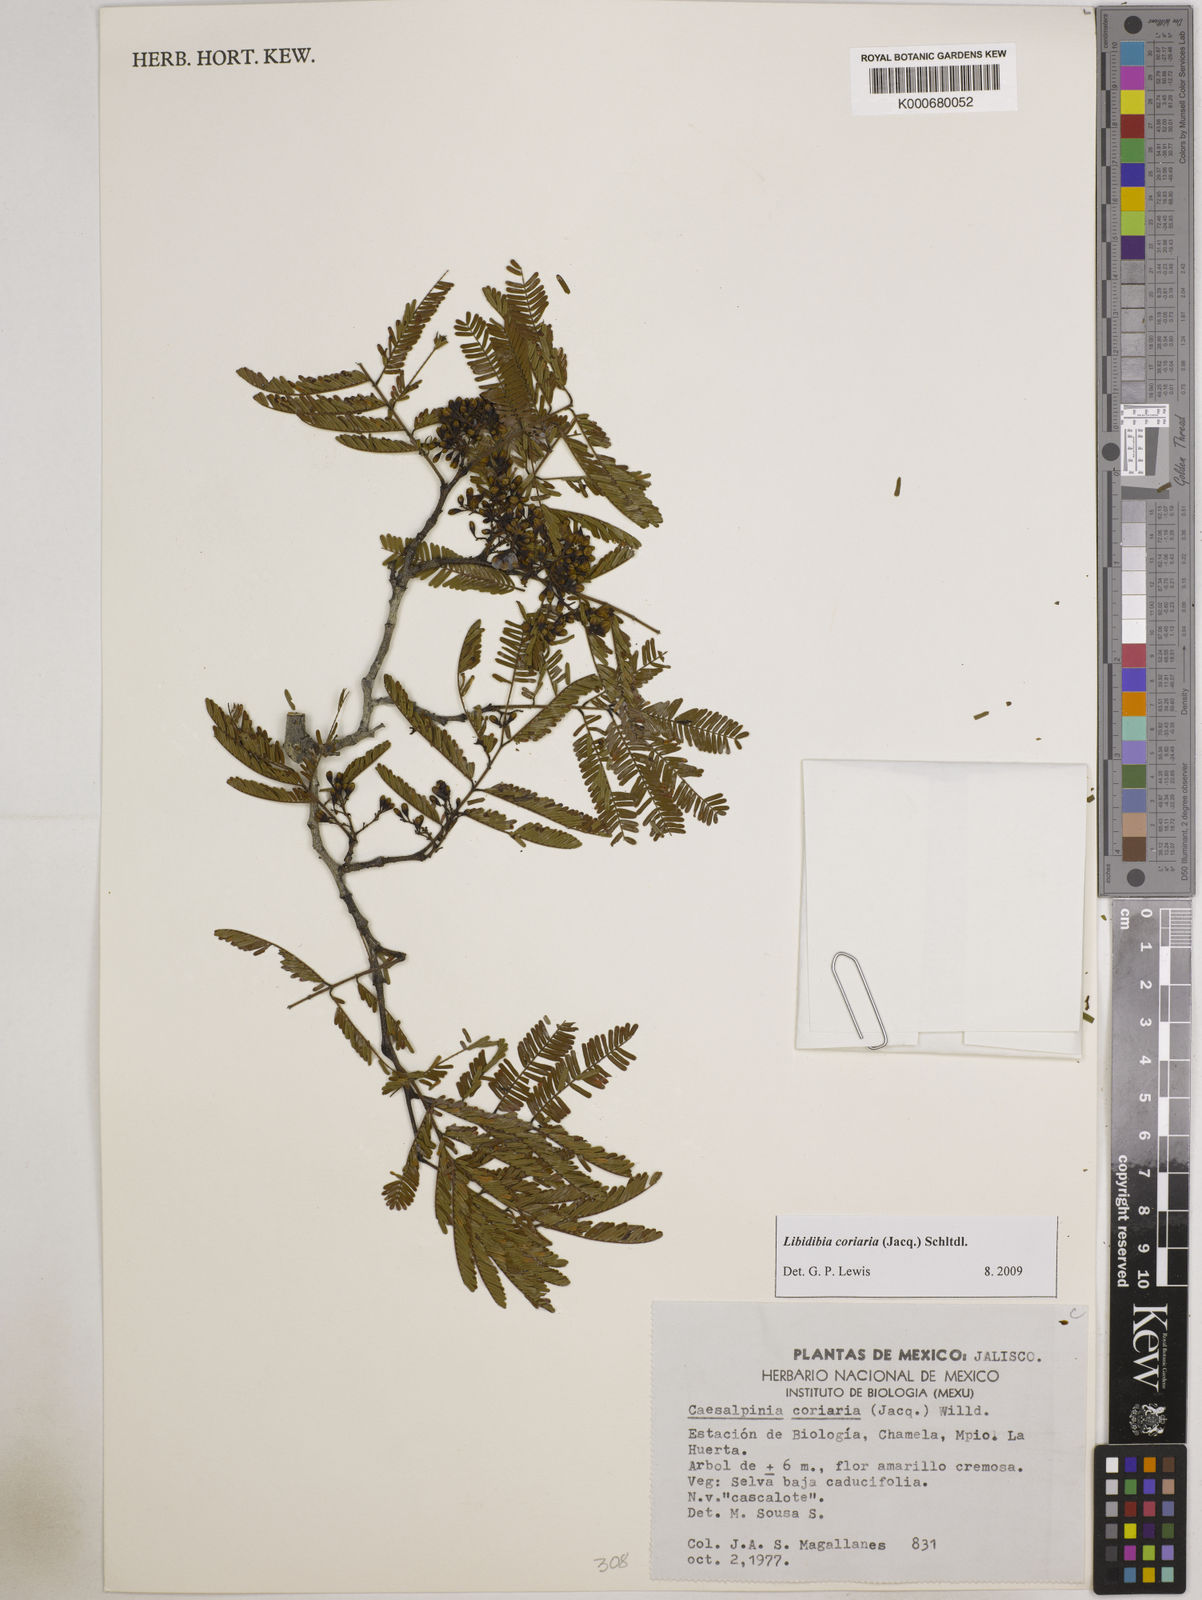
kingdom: Plantae
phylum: Tracheophyta
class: Magnoliopsida
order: Fabales
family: Fabaceae
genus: Libidibia
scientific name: Libidibia coriaria
